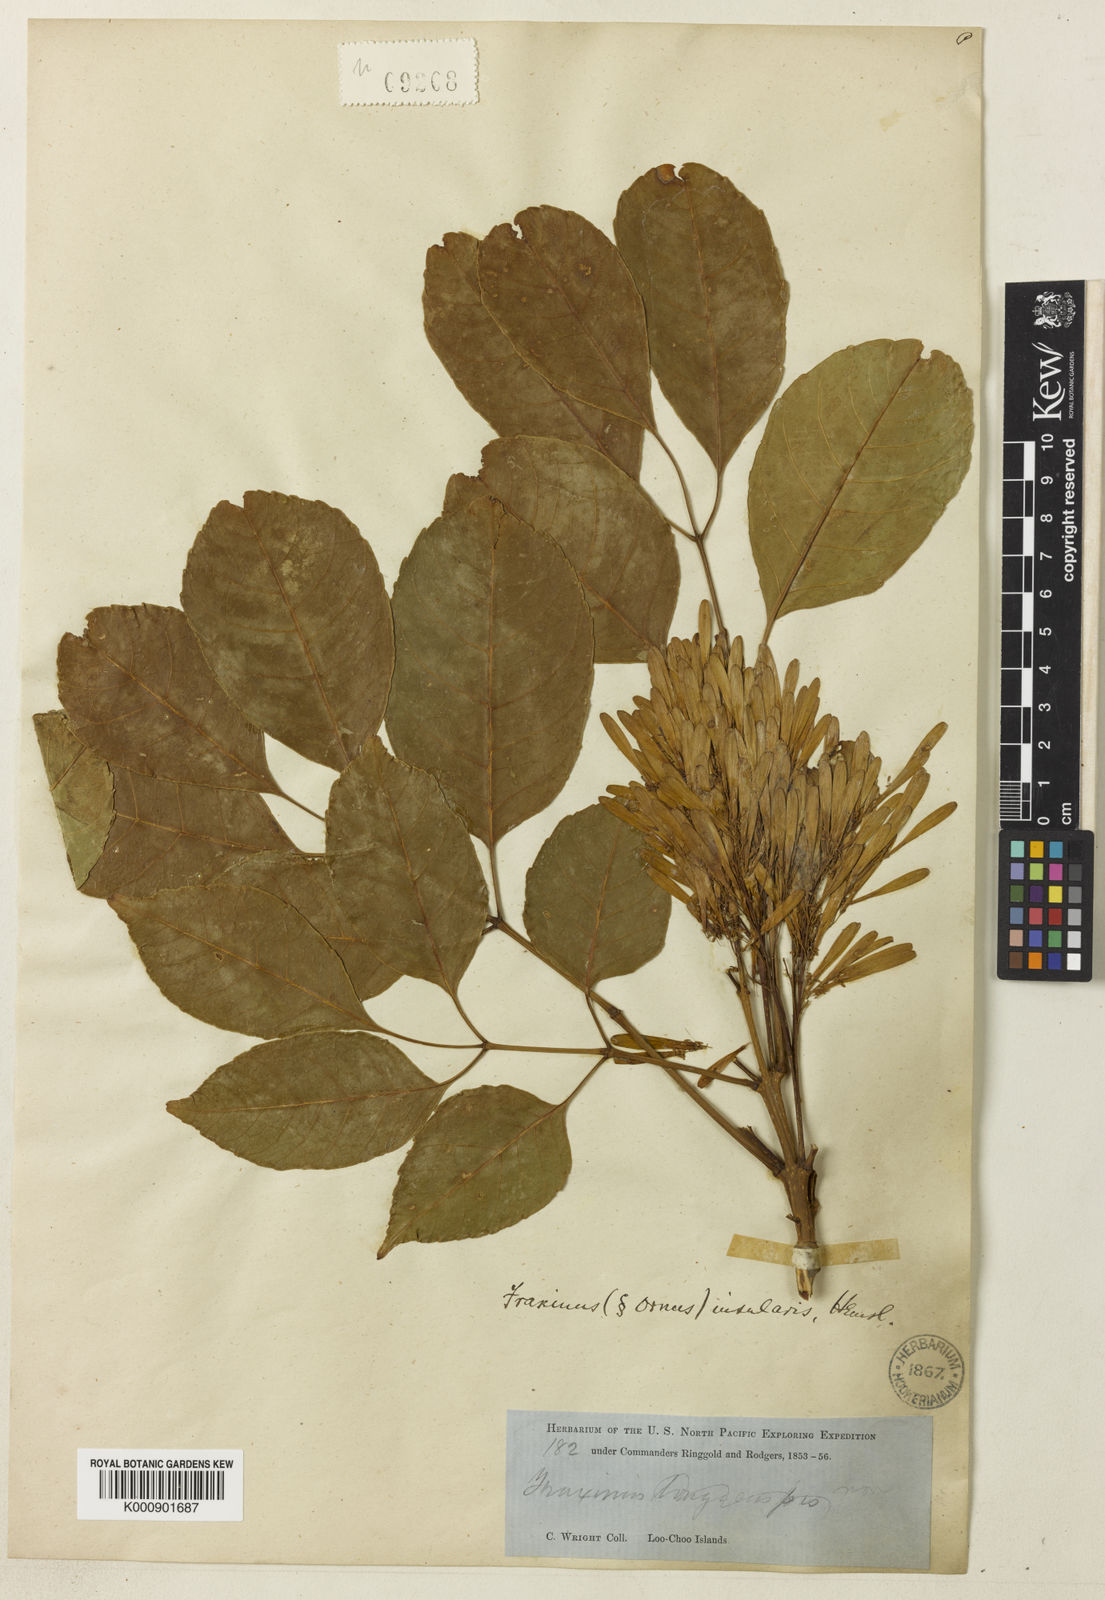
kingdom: Plantae
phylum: Tracheophyta
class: Magnoliopsida
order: Lamiales
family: Oleaceae
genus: Fraxinus
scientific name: Fraxinus floribunda
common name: East indian ash
